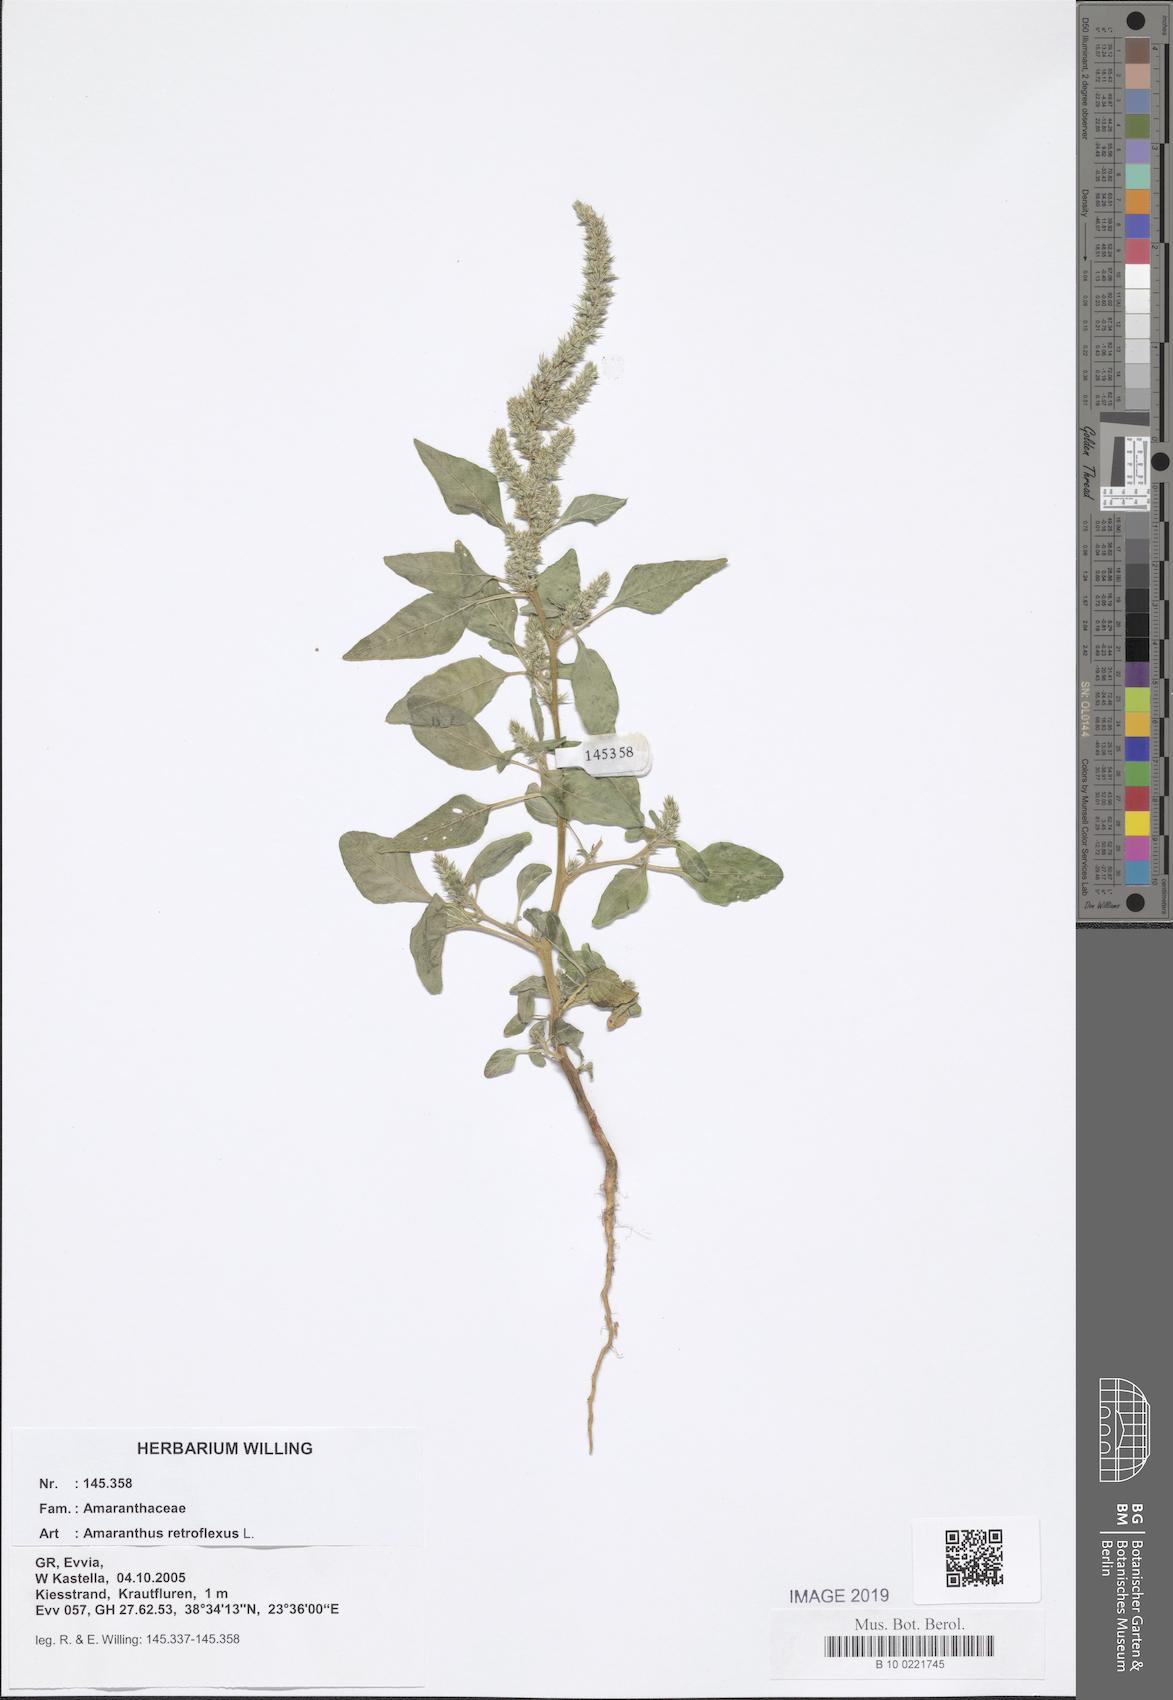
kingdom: Plantae
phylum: Tracheophyta
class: Magnoliopsida
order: Caryophyllales
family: Amaranthaceae
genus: Amaranthus
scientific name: Amaranthus retroflexus
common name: Redroot amaranth
